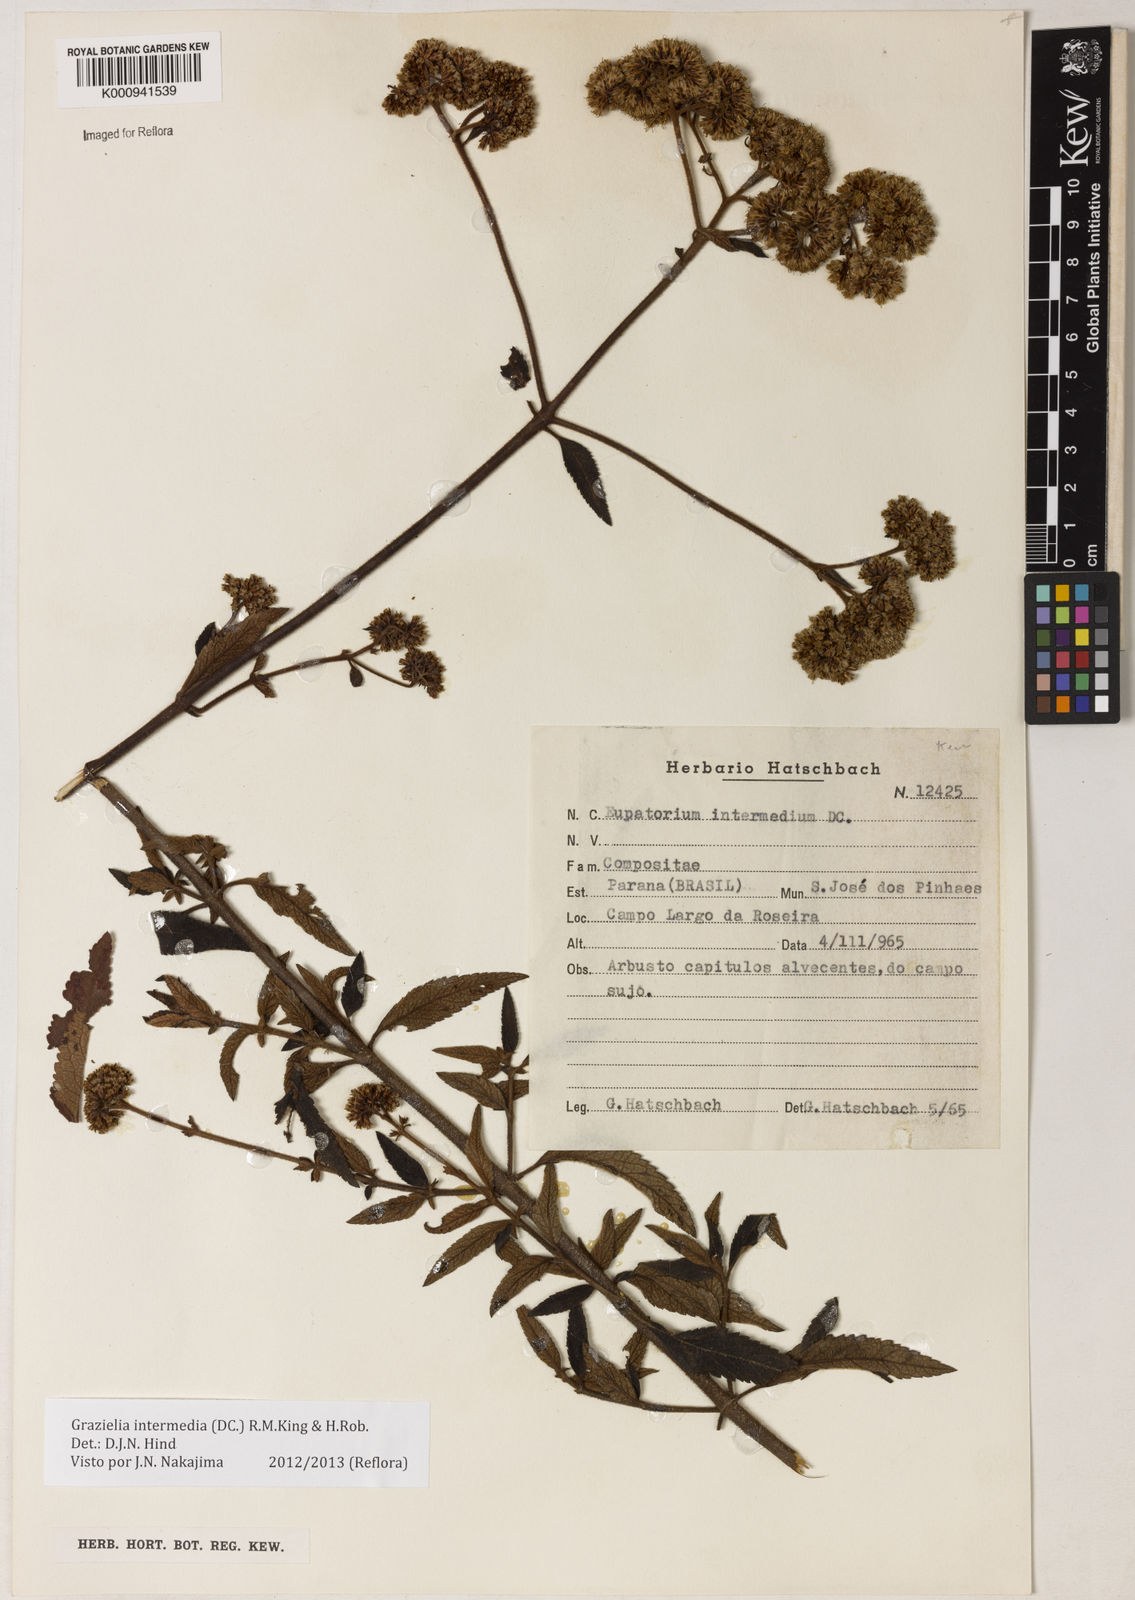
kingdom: Plantae
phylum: Tracheophyta
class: Magnoliopsida
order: Asterales
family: Asteraceae
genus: Grazielia
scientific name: Grazielia intermedia
